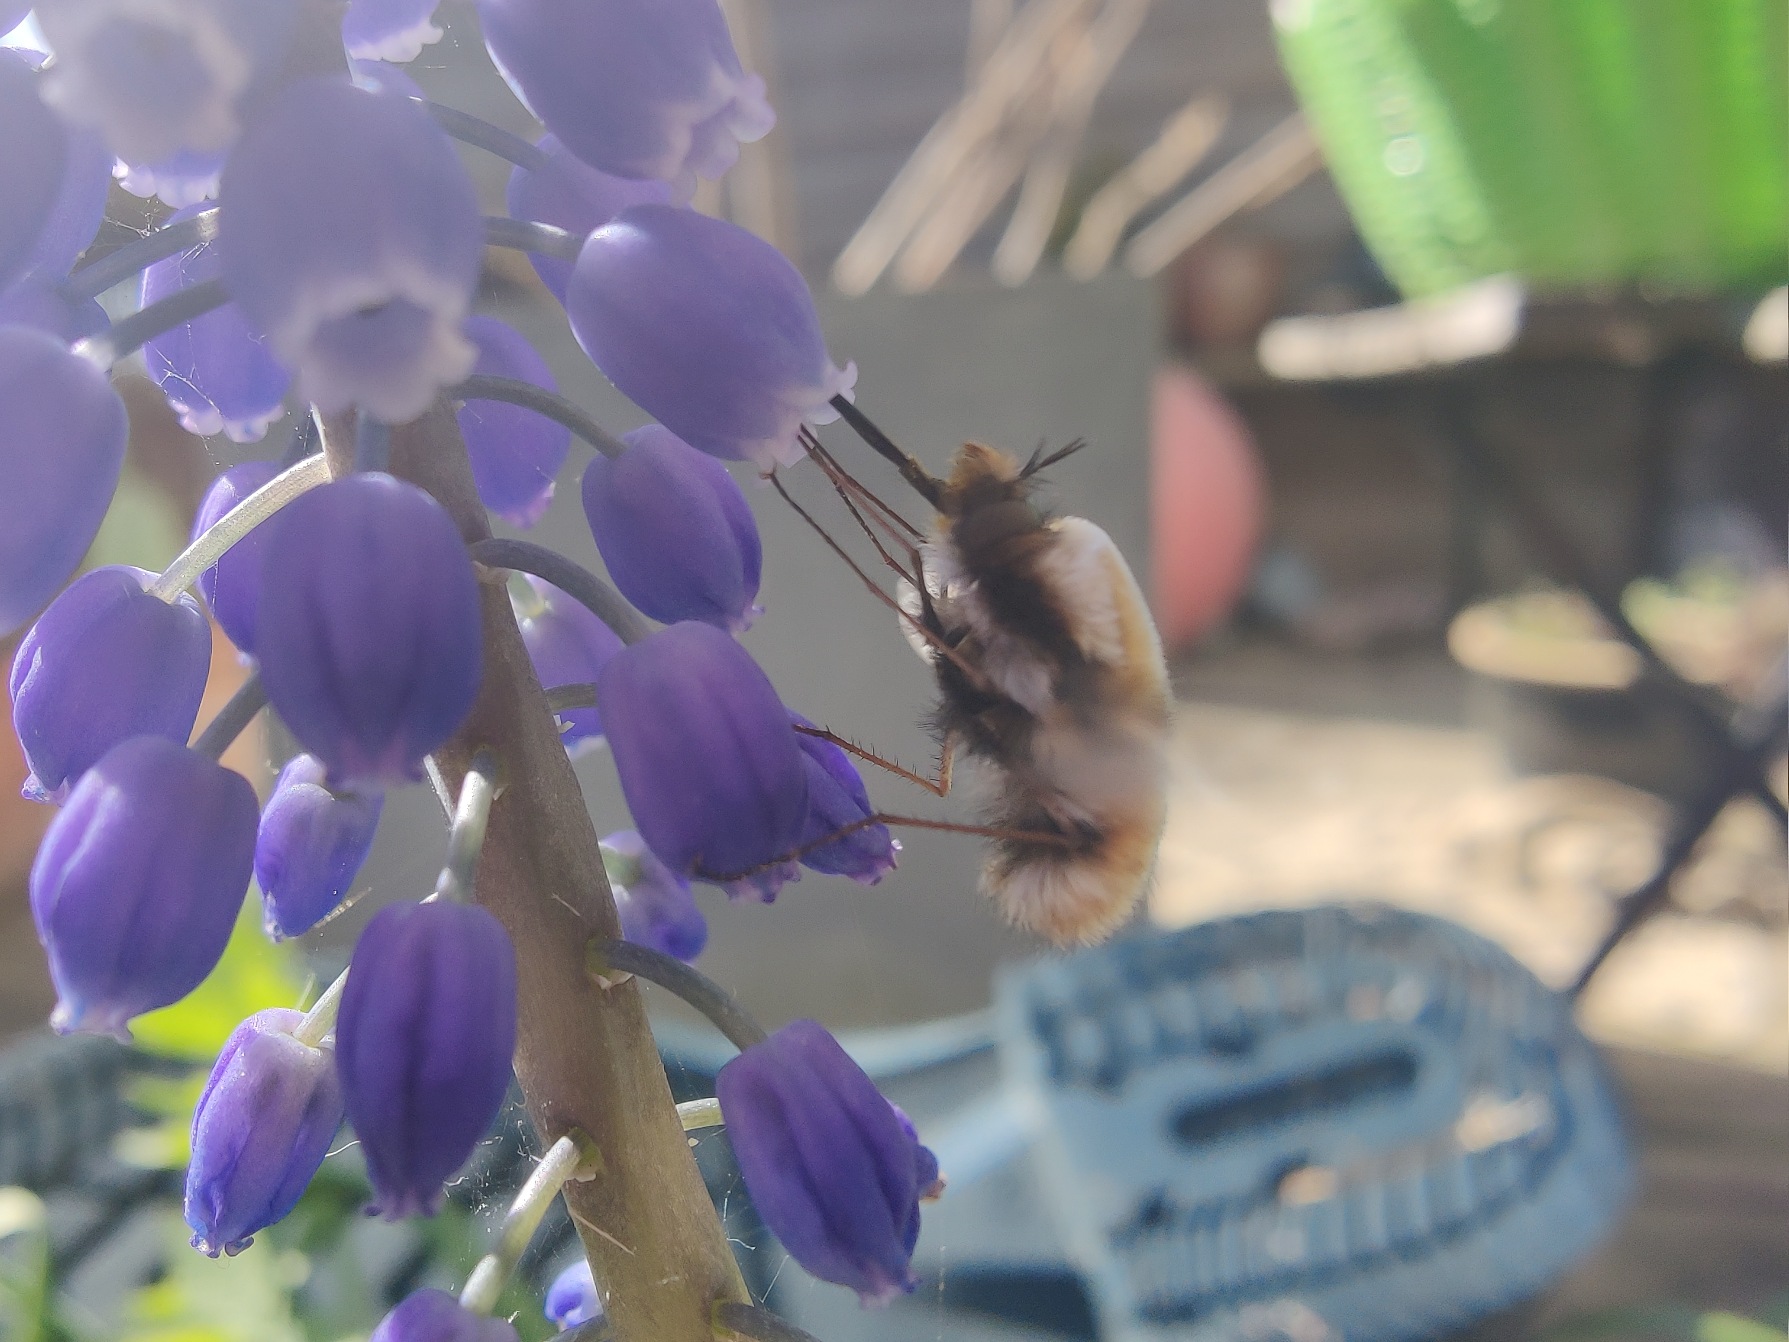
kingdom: Animalia
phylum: Arthropoda
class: Insecta
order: Diptera
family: Bombyliidae
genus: Bombylius
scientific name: Bombylius major
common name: Stor humleflue
